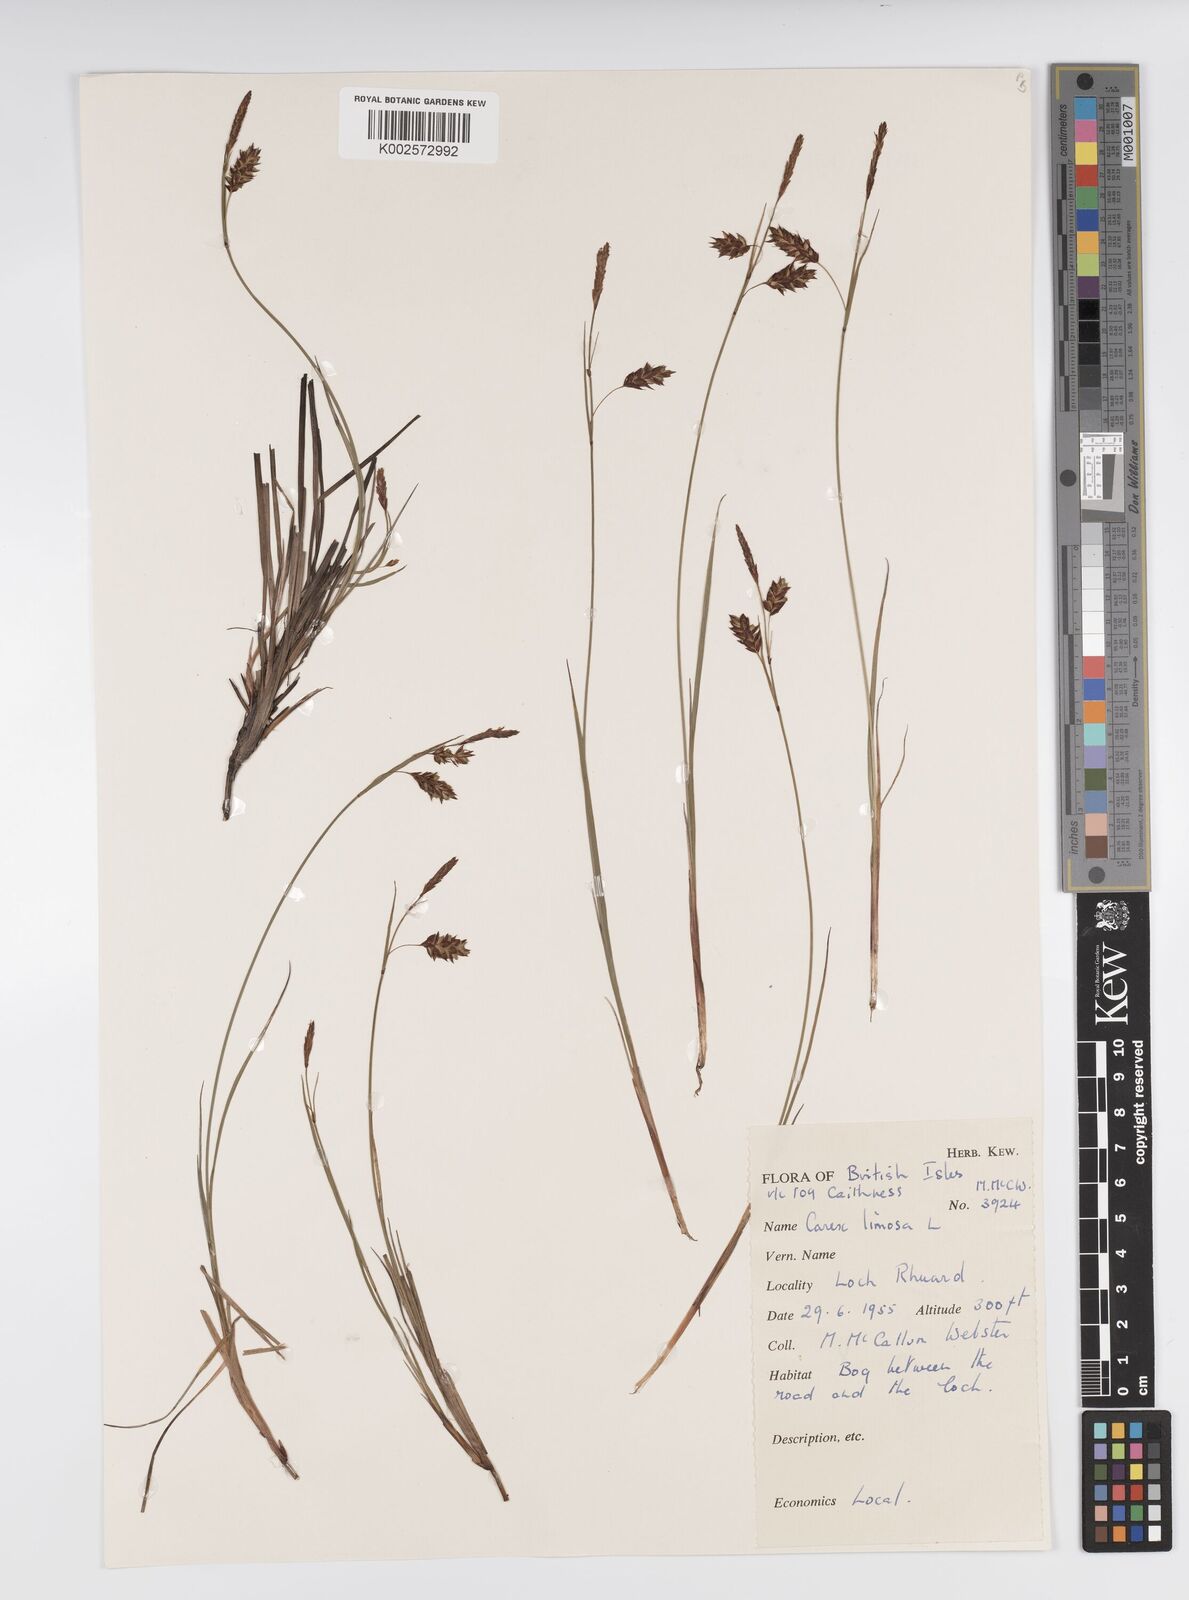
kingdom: Plantae
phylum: Tracheophyta
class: Liliopsida
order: Poales
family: Cyperaceae
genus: Carex
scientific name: Carex limosa
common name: Bog sedge
